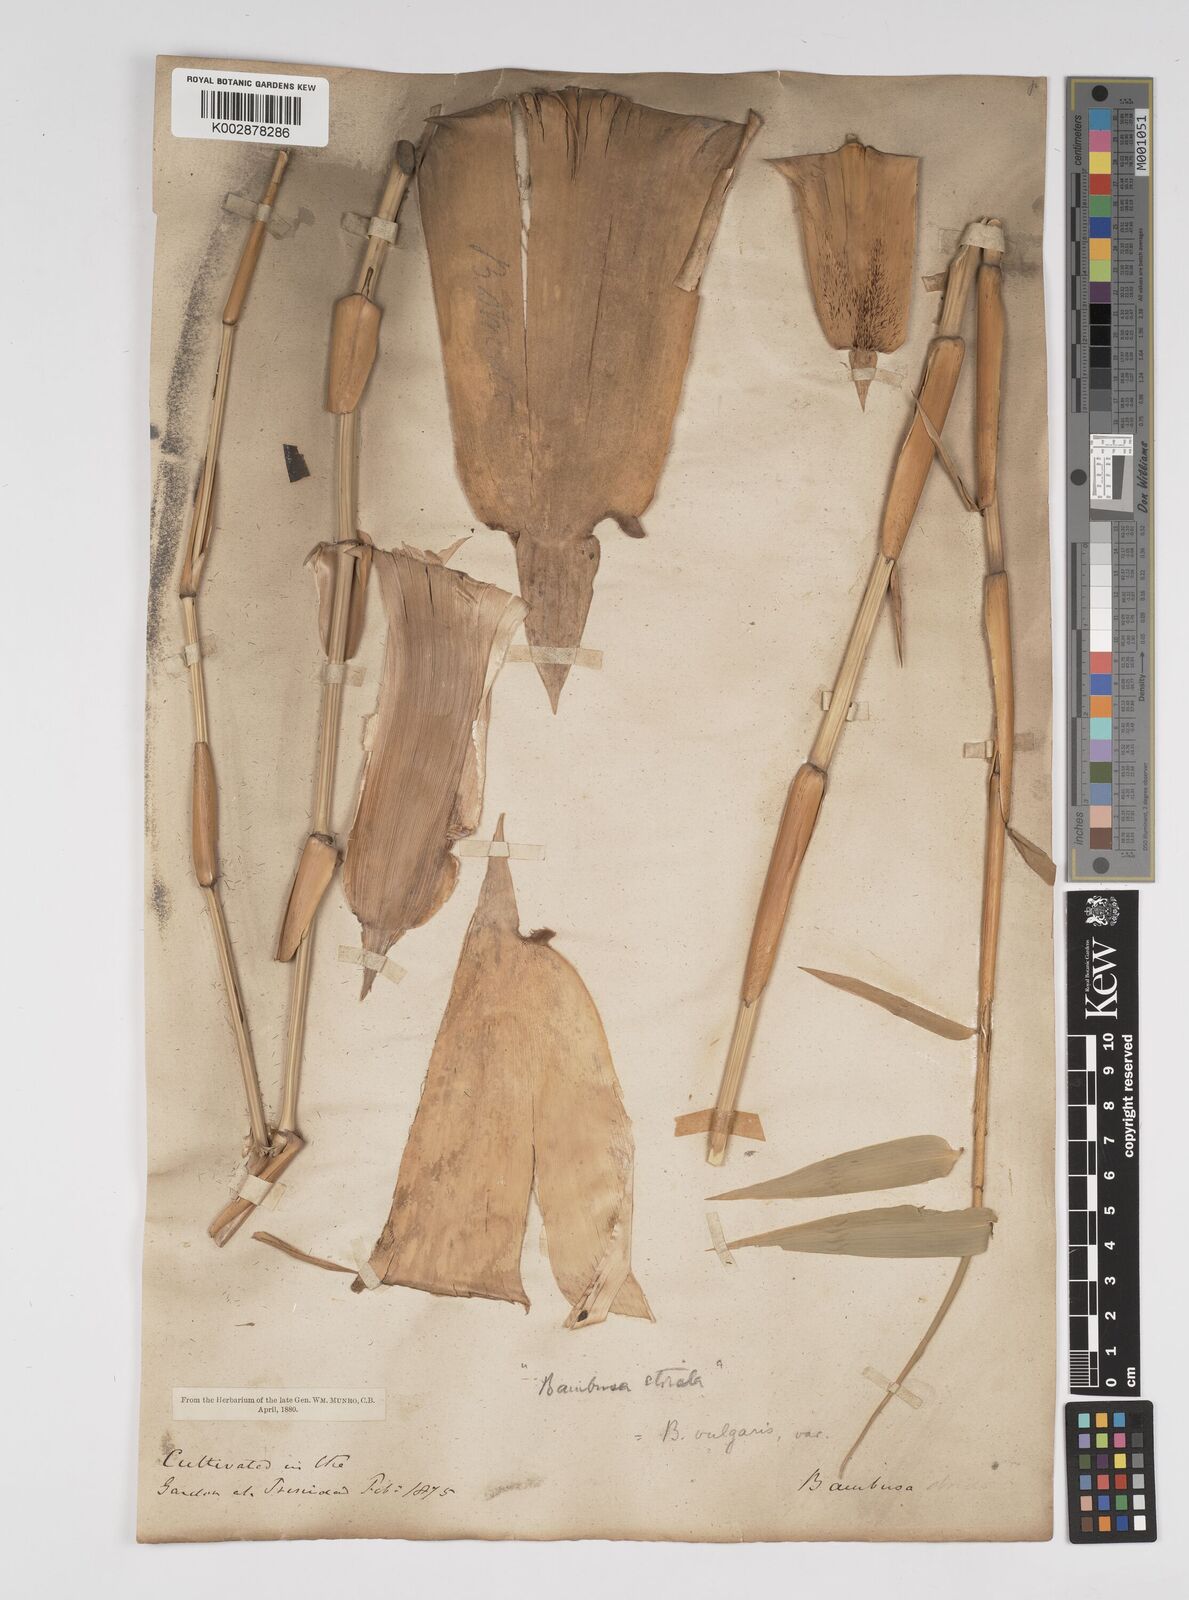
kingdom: Plantae
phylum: Tracheophyta
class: Liliopsida
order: Poales
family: Poaceae
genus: Bambusa
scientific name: Bambusa vulgaris
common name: Common bamboo
